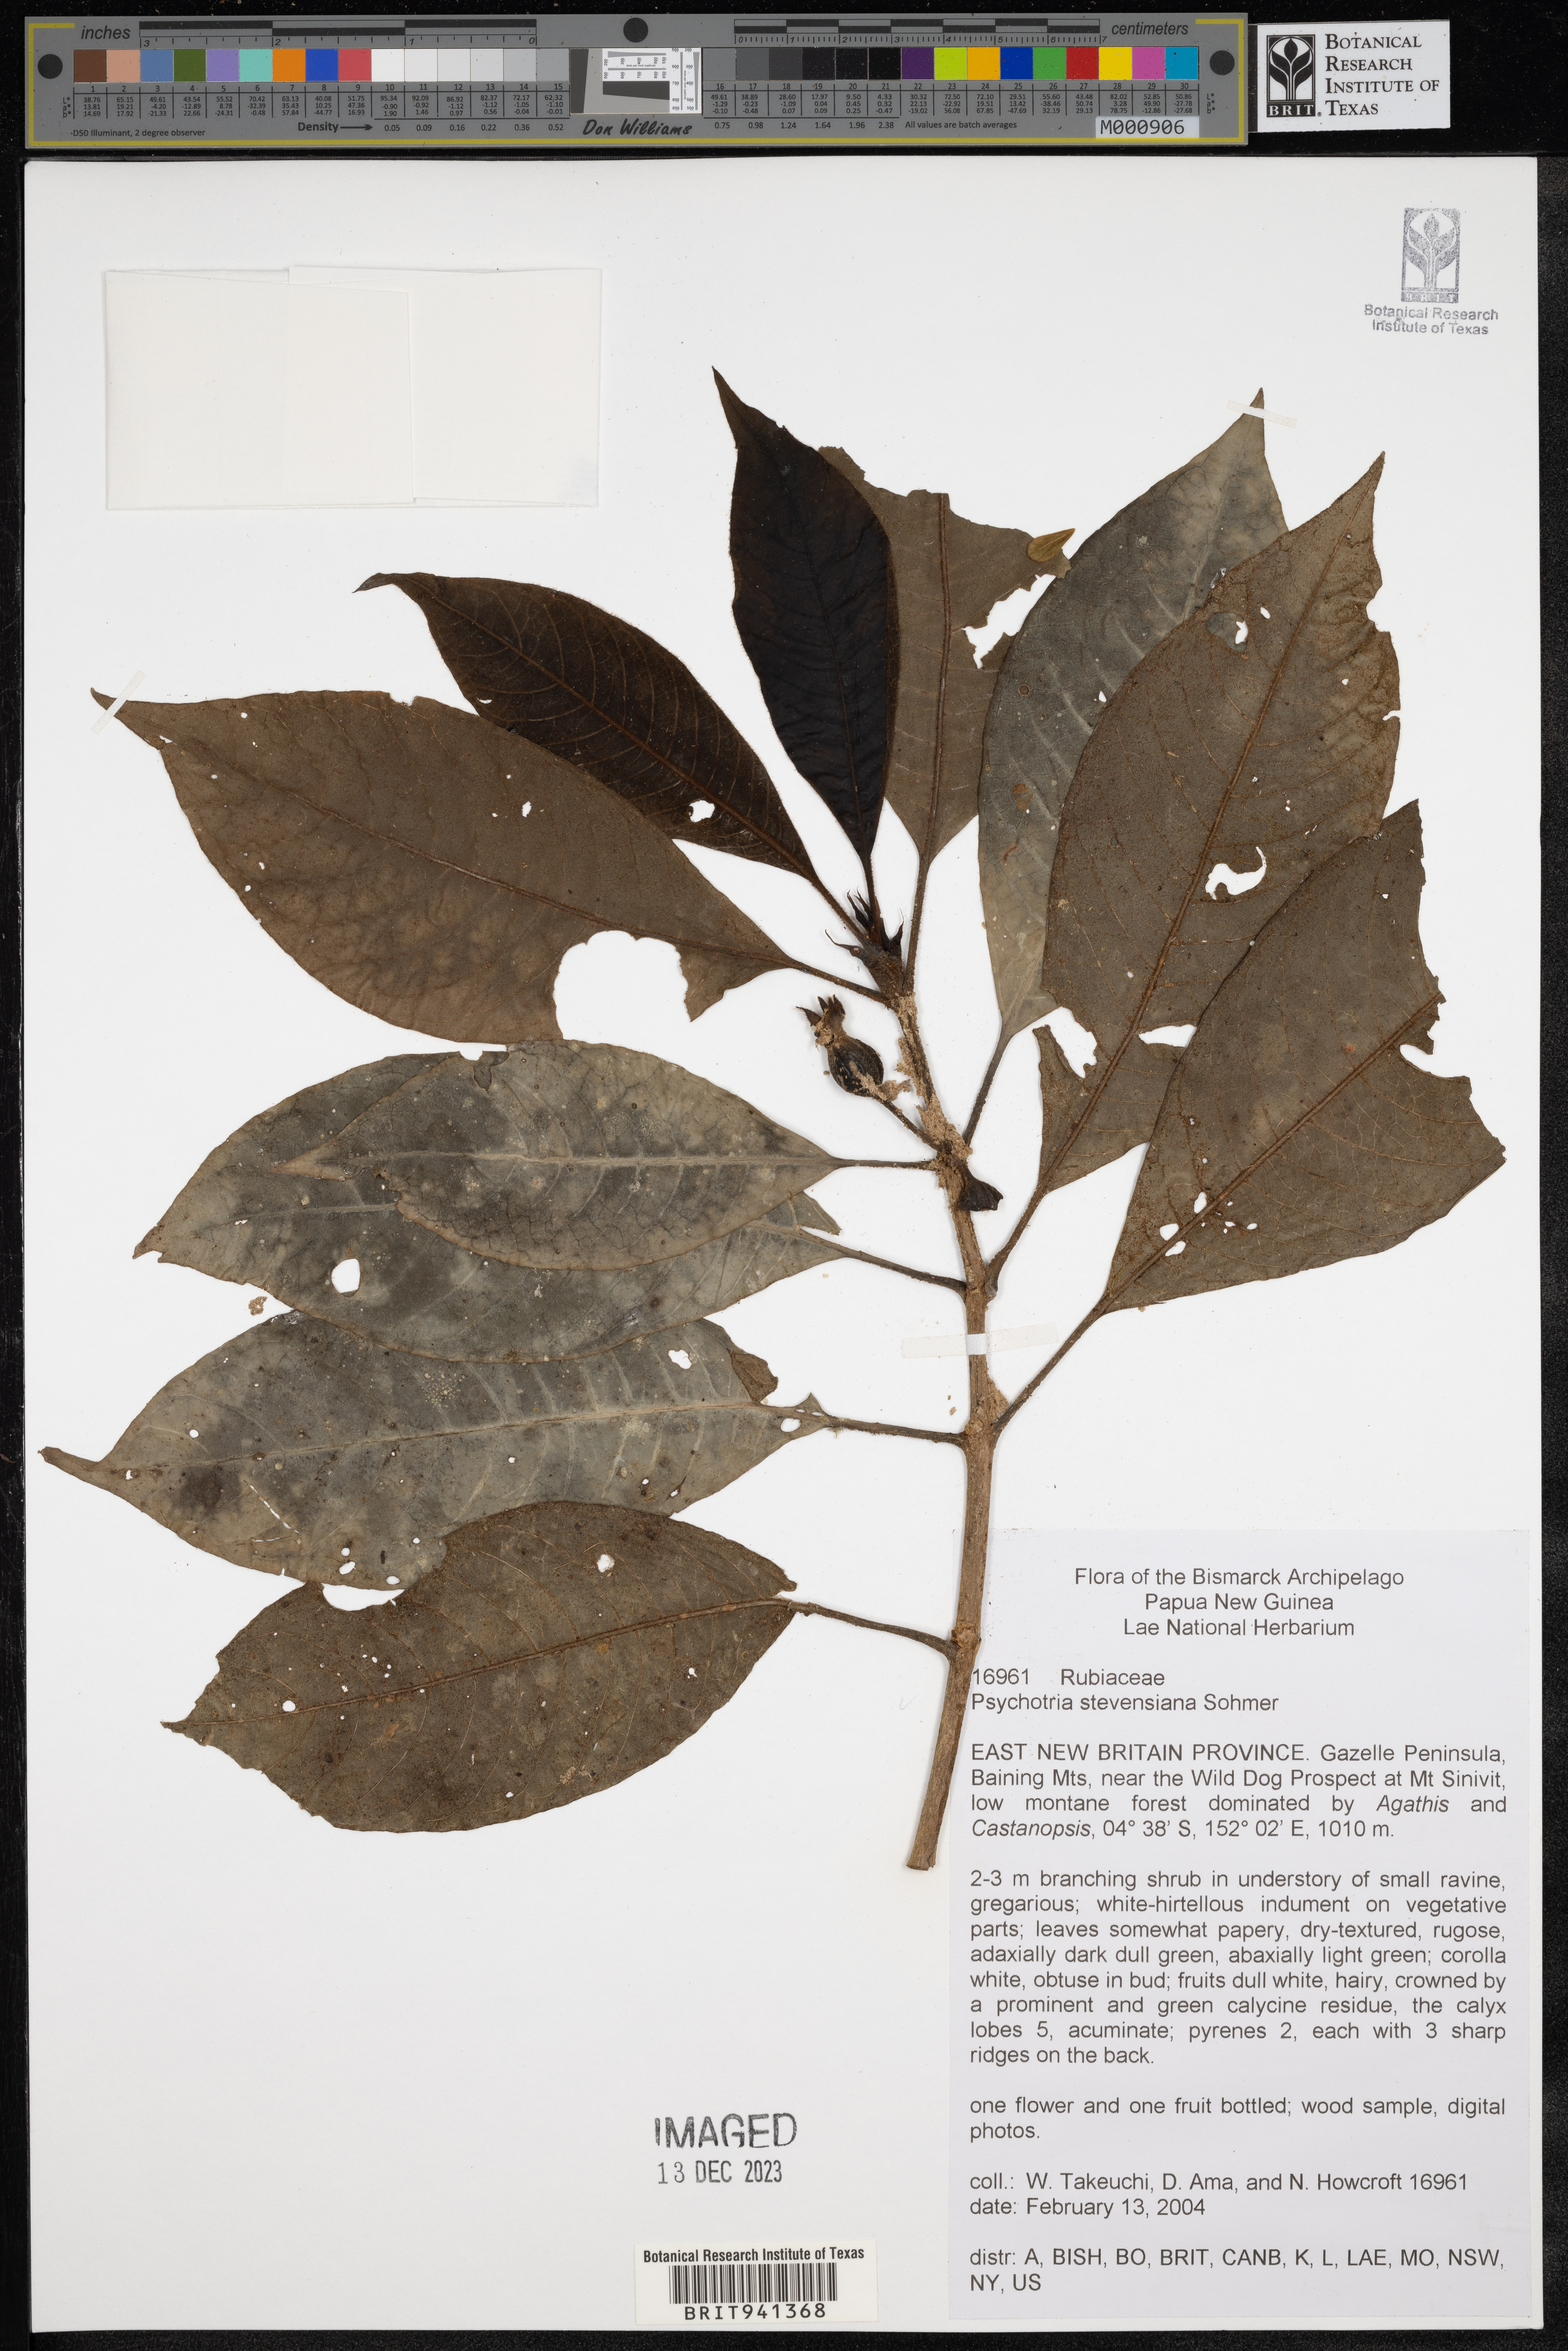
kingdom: Plantae
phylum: Tracheophyta
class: Magnoliopsida
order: Gentianales
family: Rubiaceae
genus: Psychotria
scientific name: Psychotria
